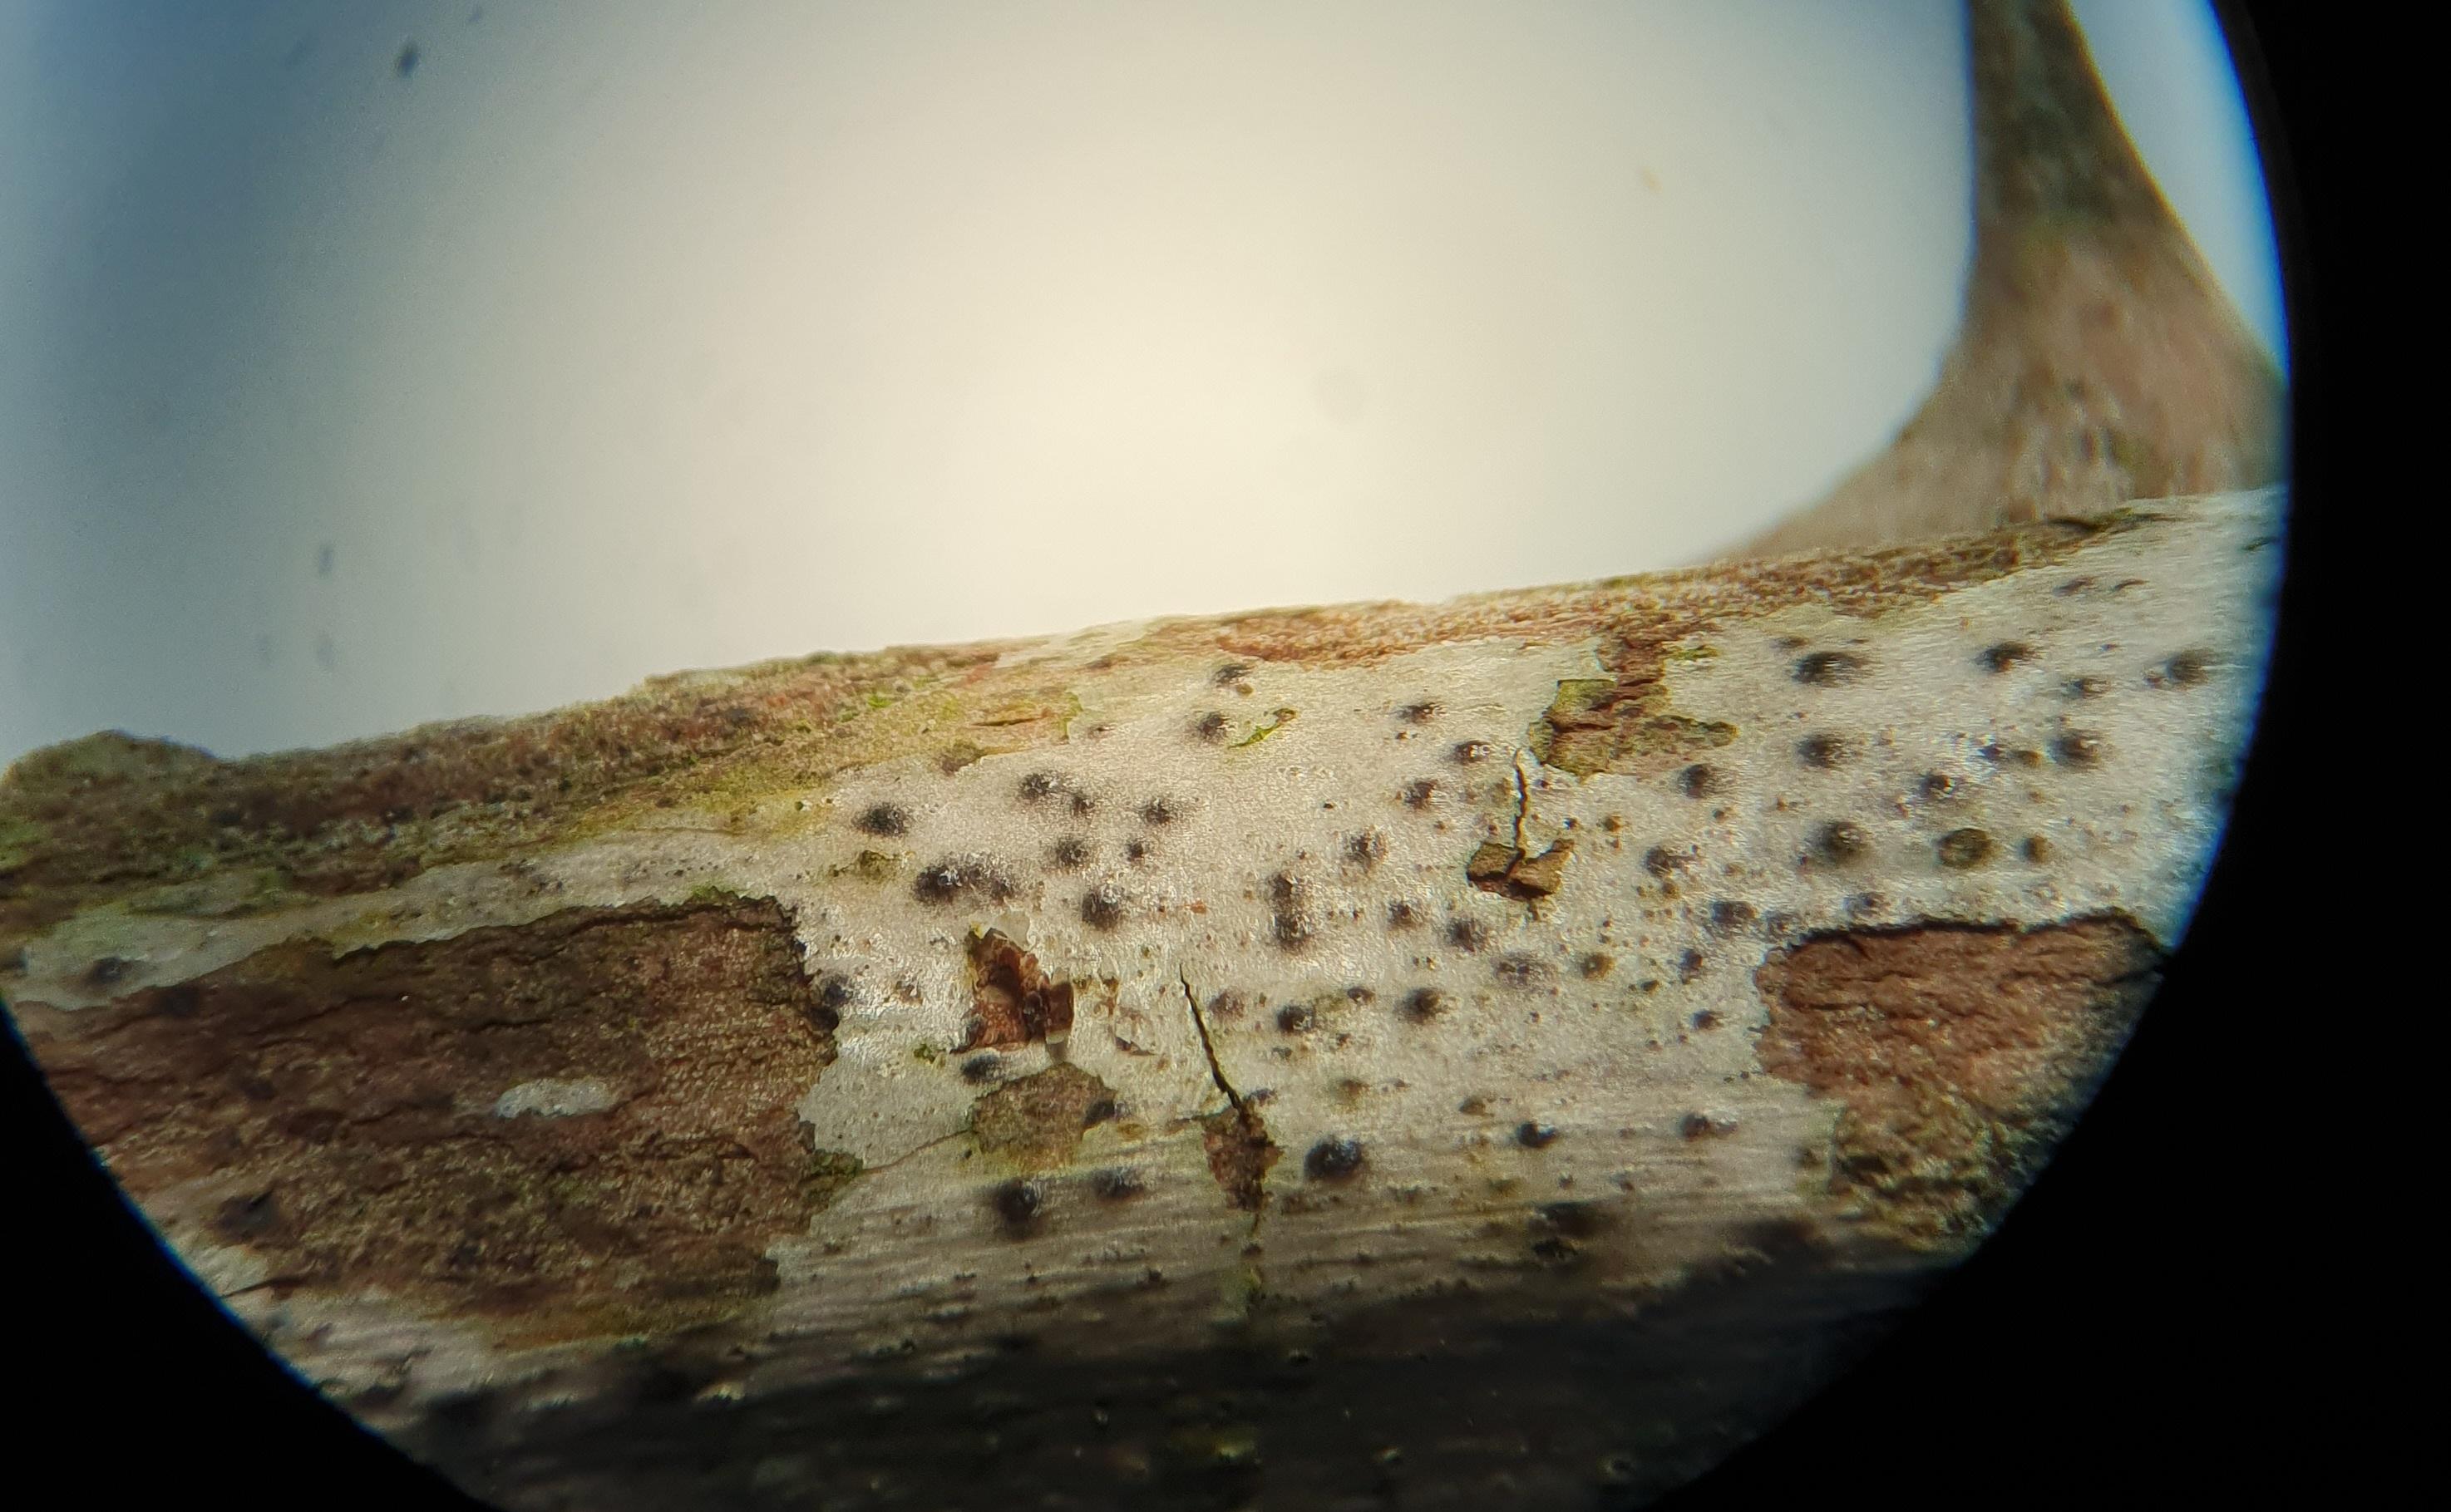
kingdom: Fungi
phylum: Ascomycota
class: Dothideomycetes
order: Pleosporales
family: Didymosphaeriaceae
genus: Didymosphaeria
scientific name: Didymosphaeria oblitescens
